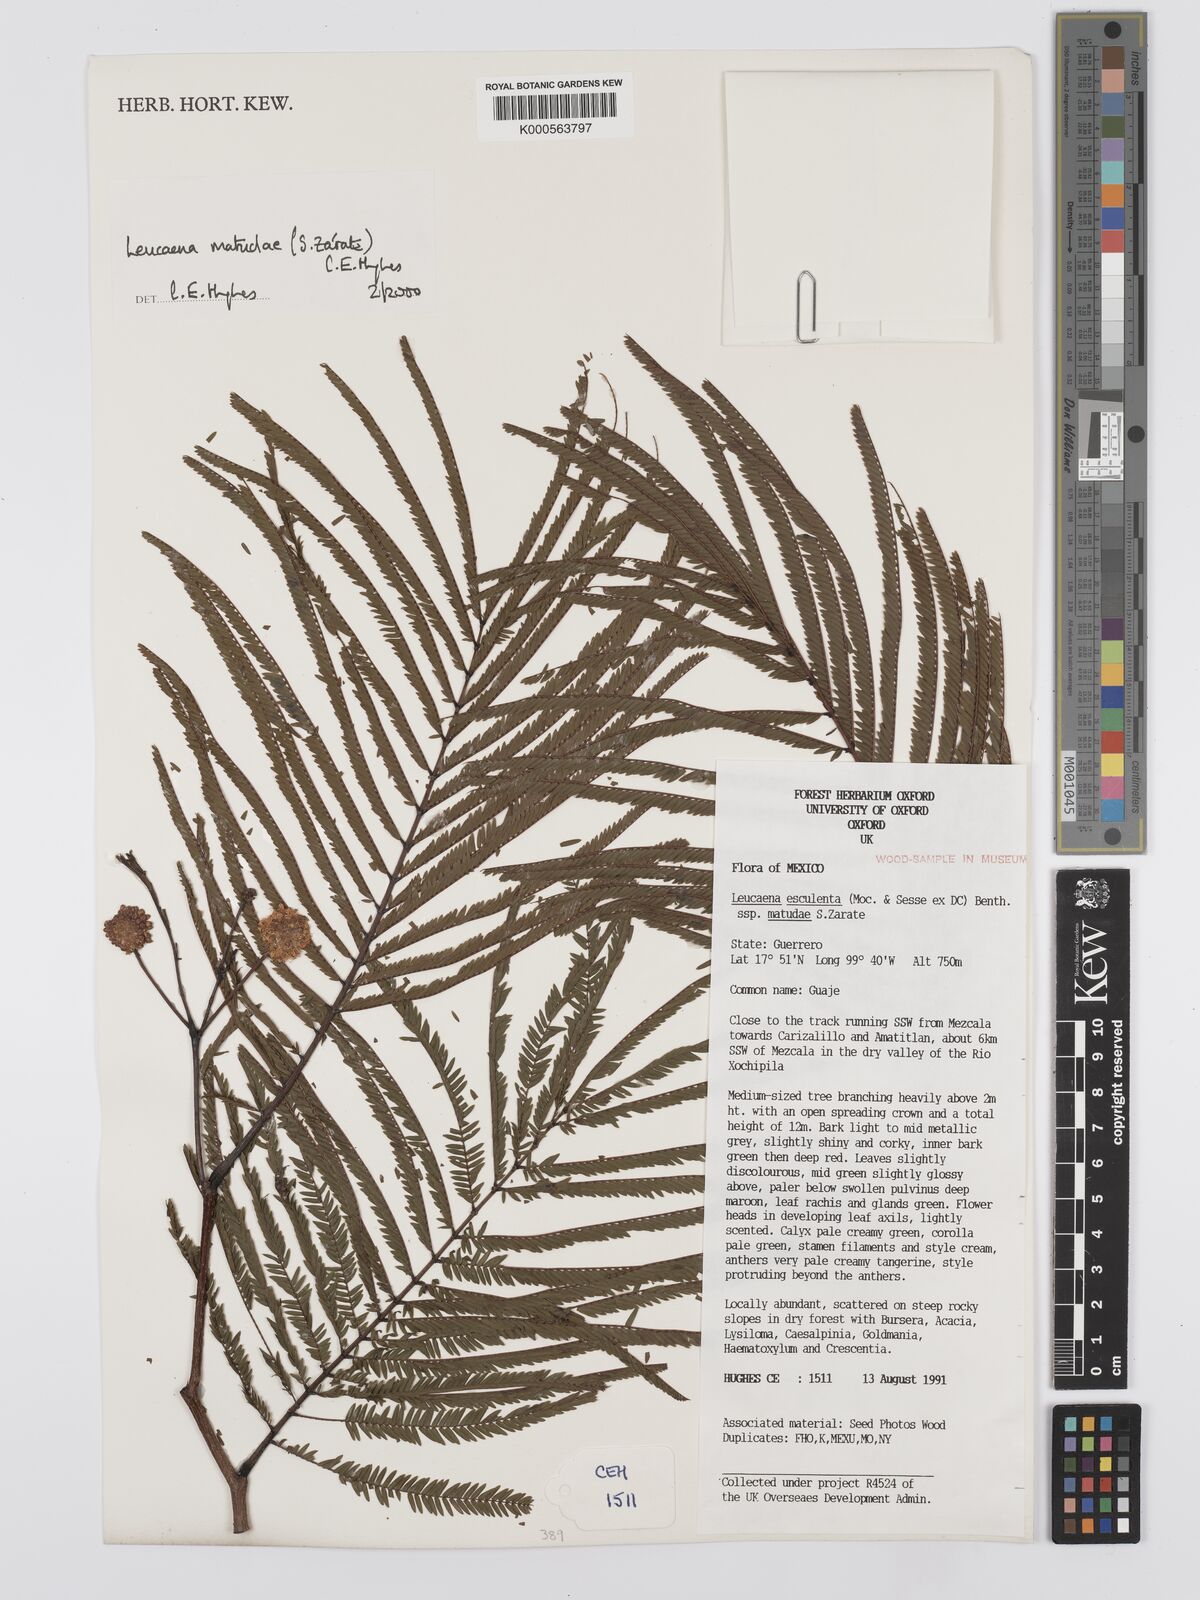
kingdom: Plantae
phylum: Tracheophyta
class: Magnoliopsida
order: Fabales
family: Fabaceae
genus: Leucaena
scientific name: Leucaena
